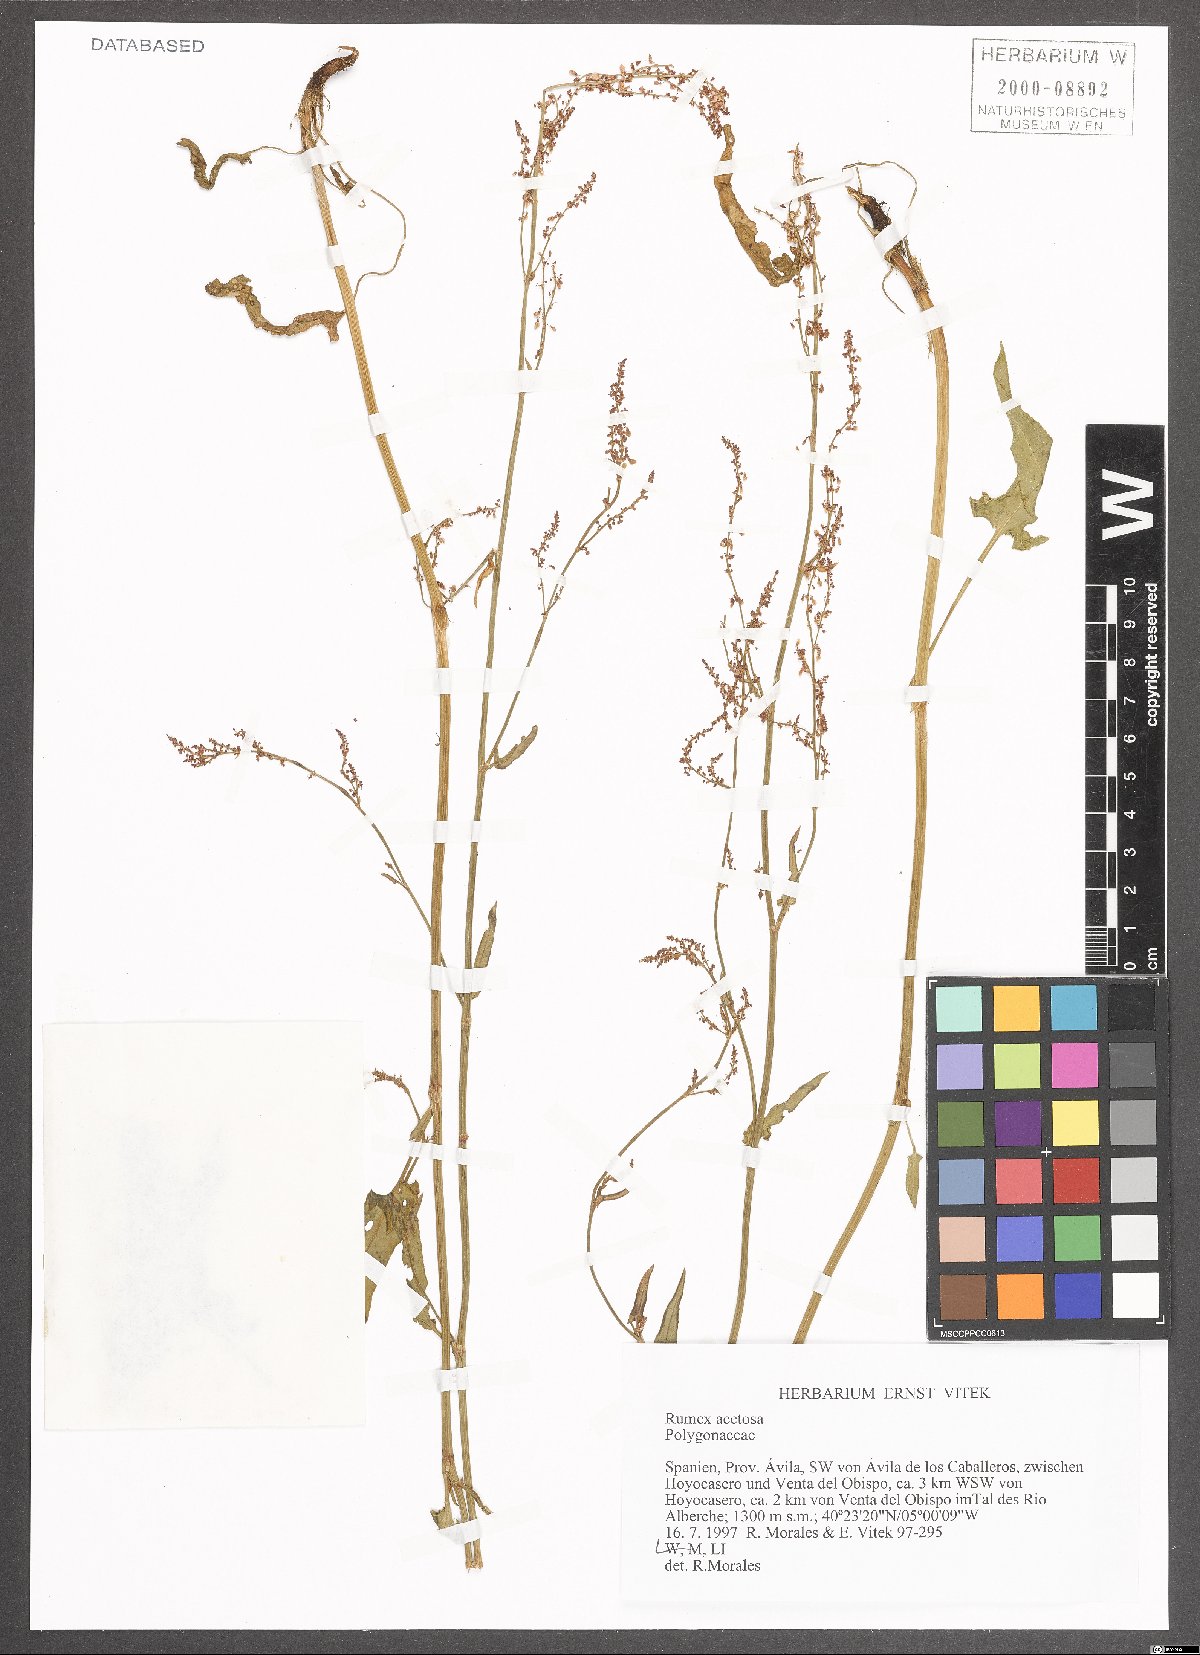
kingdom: Plantae
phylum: Tracheophyta
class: Magnoliopsida
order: Caryophyllales
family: Polygonaceae
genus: Rumex
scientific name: Rumex acetosa
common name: Garden sorrel
